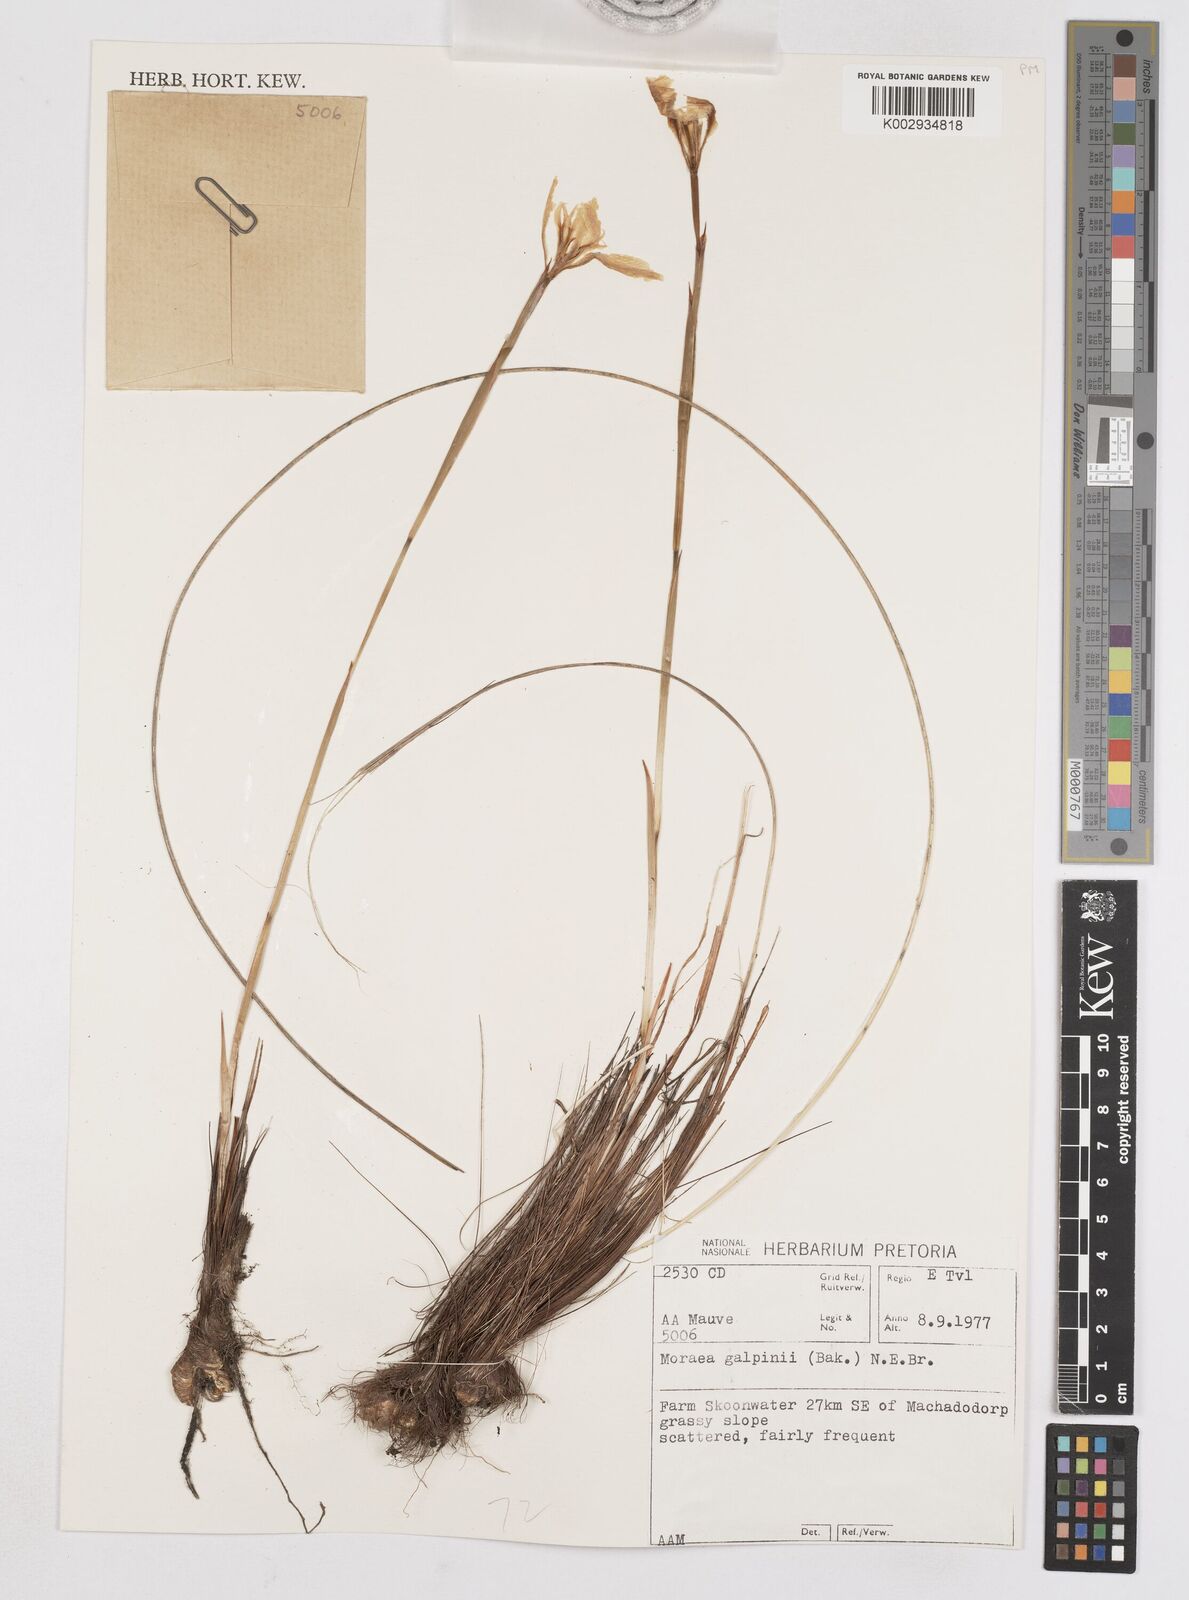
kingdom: Plantae
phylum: Tracheophyta
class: Liliopsida
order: Asparagales
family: Iridaceae
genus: Moraea
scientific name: Moraea galpinii
